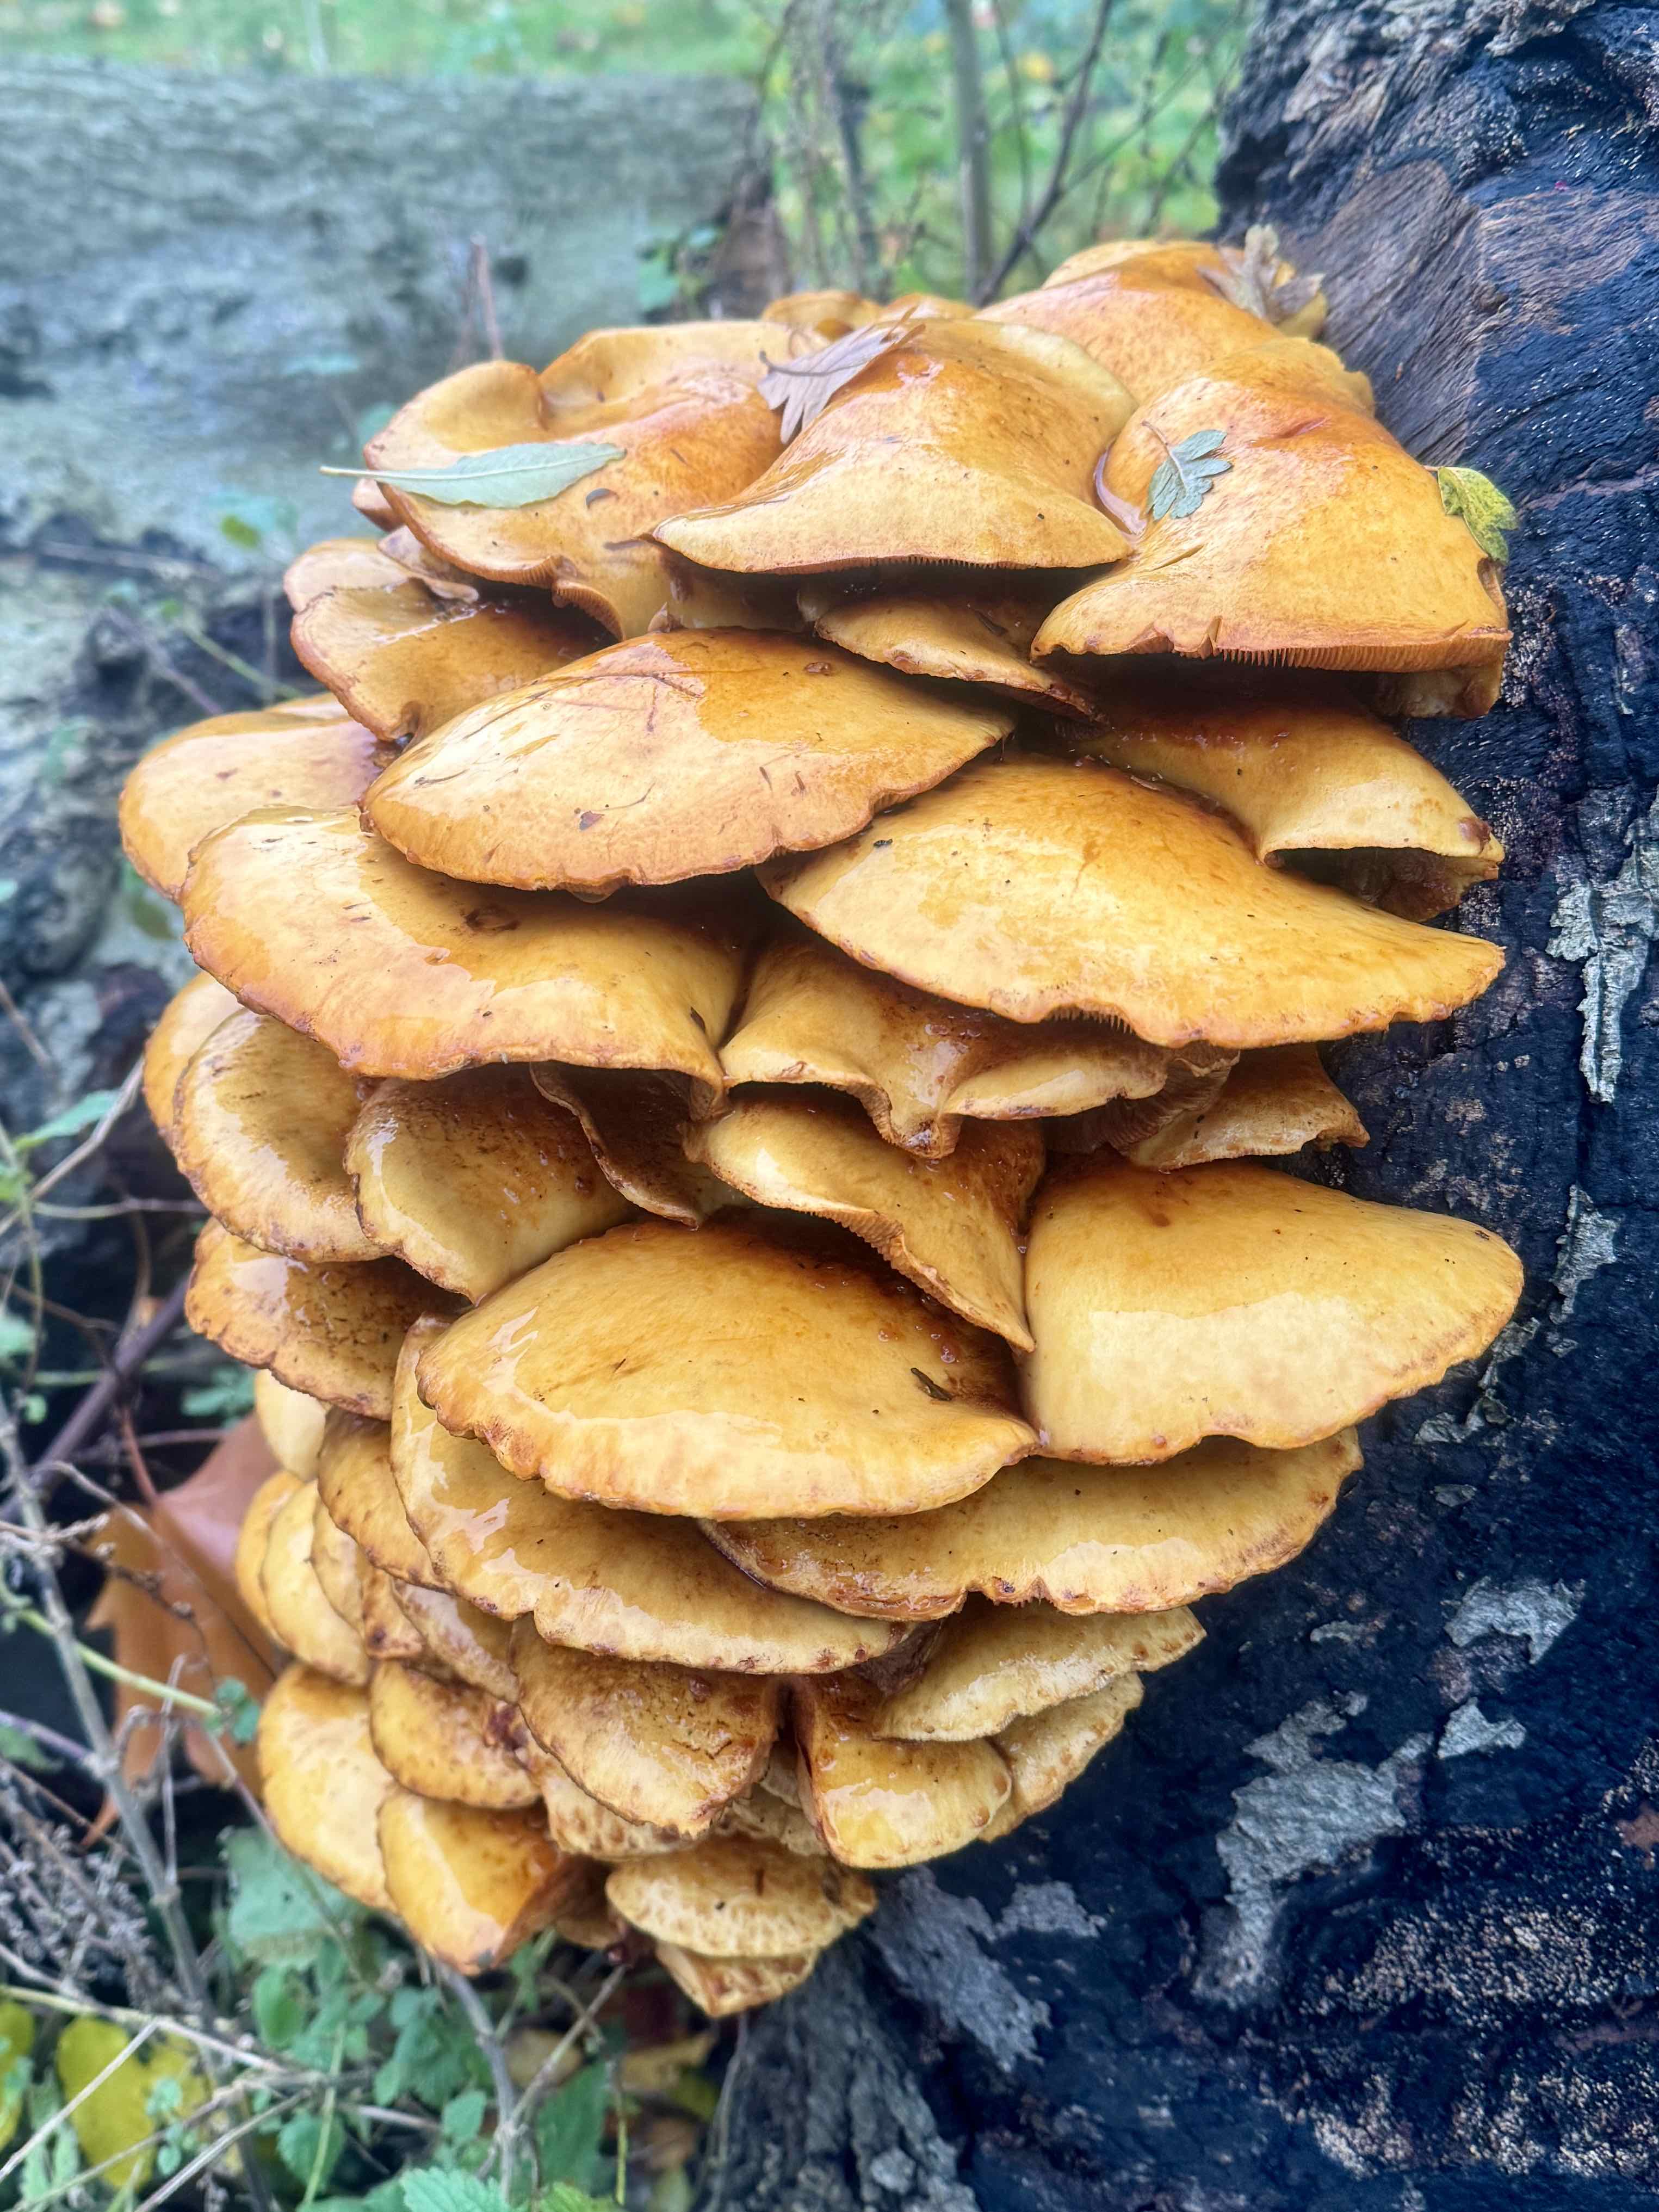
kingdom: Fungi
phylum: Basidiomycota
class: Agaricomycetes
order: Agaricales
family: Strophariaceae
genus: Pholiota
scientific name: Pholiota adiposa
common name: højtsiddende skælhat
